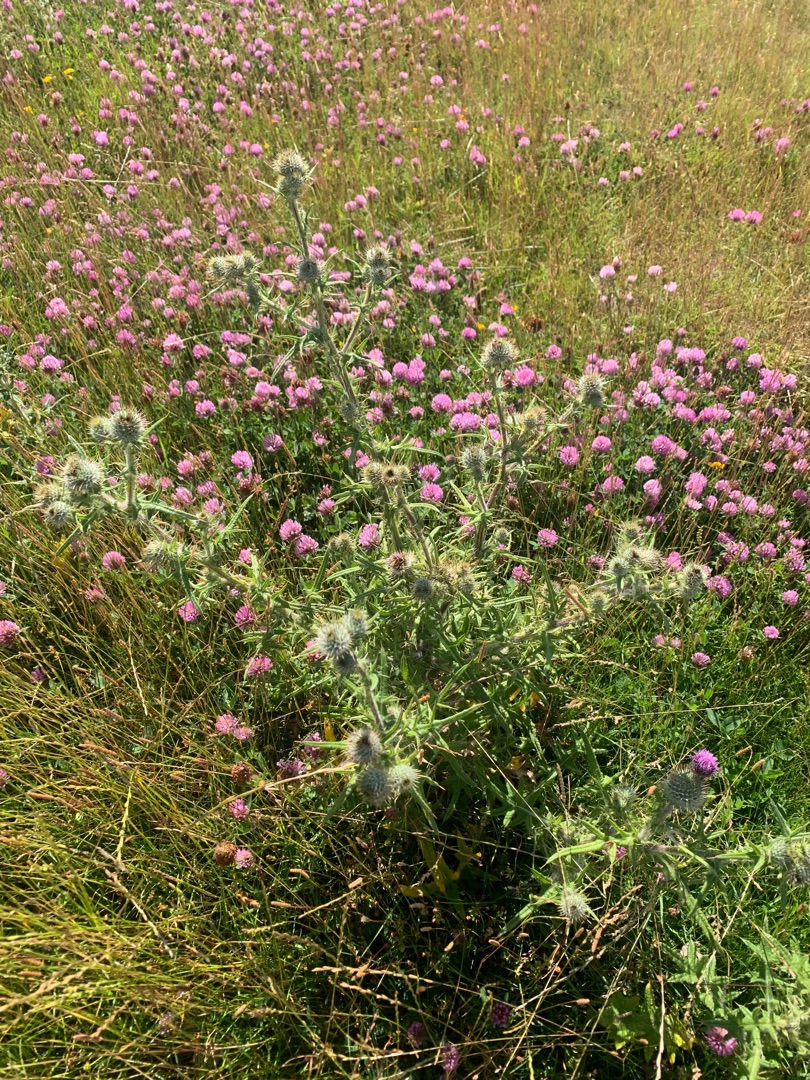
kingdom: Plantae
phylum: Tracheophyta
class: Magnoliopsida
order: Asterales
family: Asteraceae
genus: Cirsium
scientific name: Cirsium vulgare
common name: Horse-tidsel
